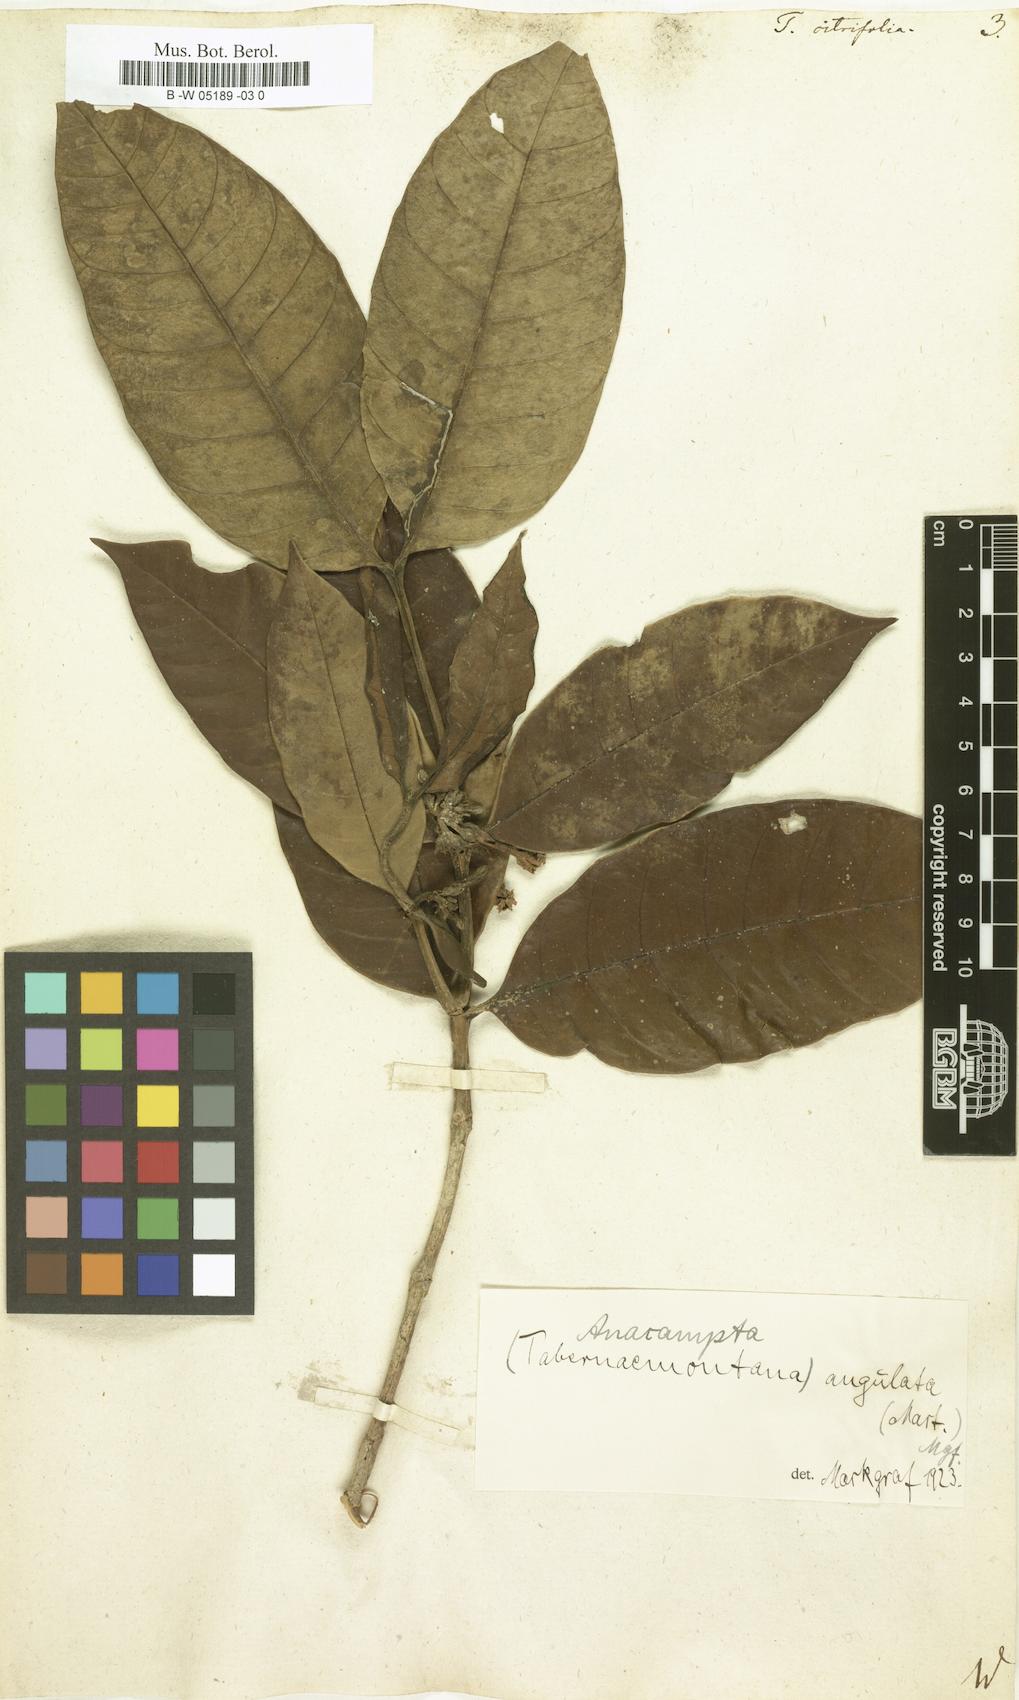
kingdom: Plantae
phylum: Tracheophyta
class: Magnoliopsida
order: Gentianales
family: Apocynaceae
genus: Tabernaemontana
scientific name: Tabernaemontana citrifolia
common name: Milky tree
